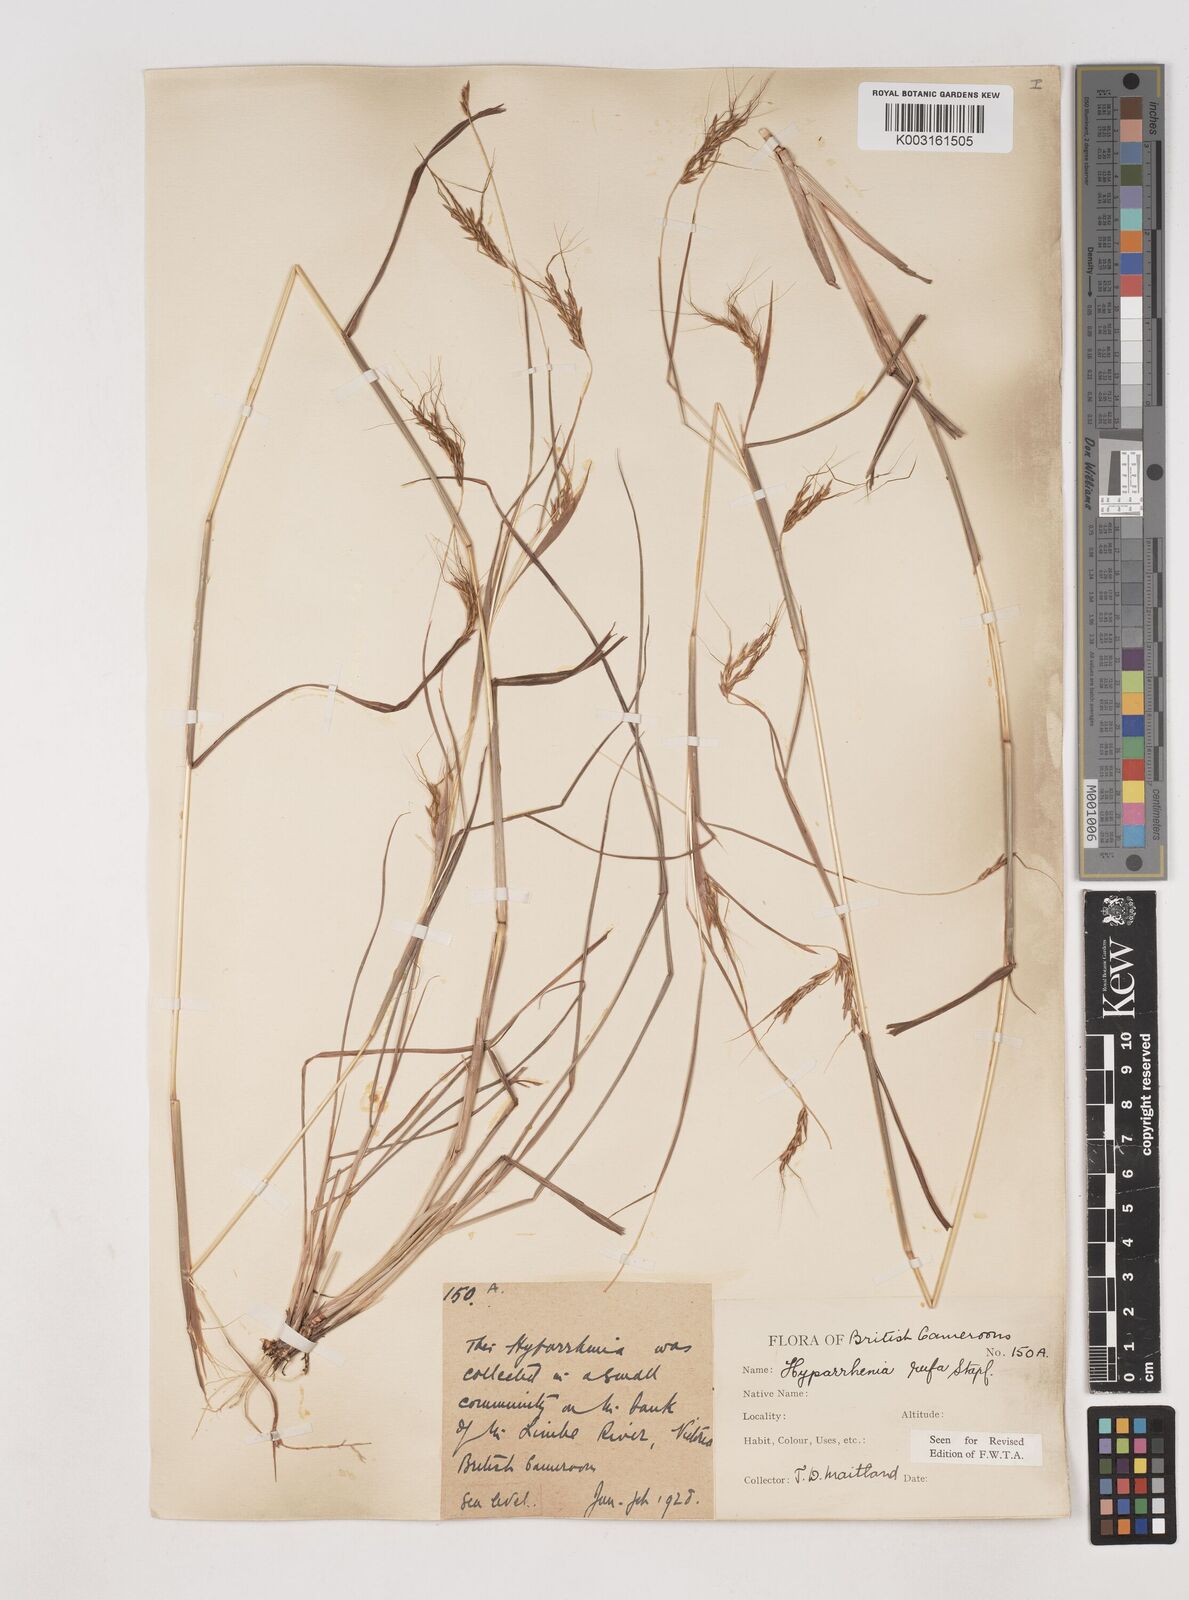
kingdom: Plantae
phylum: Tracheophyta
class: Liliopsida
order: Poales
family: Poaceae
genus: Hyparrhenia
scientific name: Hyparrhenia rufa
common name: Jaraguagrass
